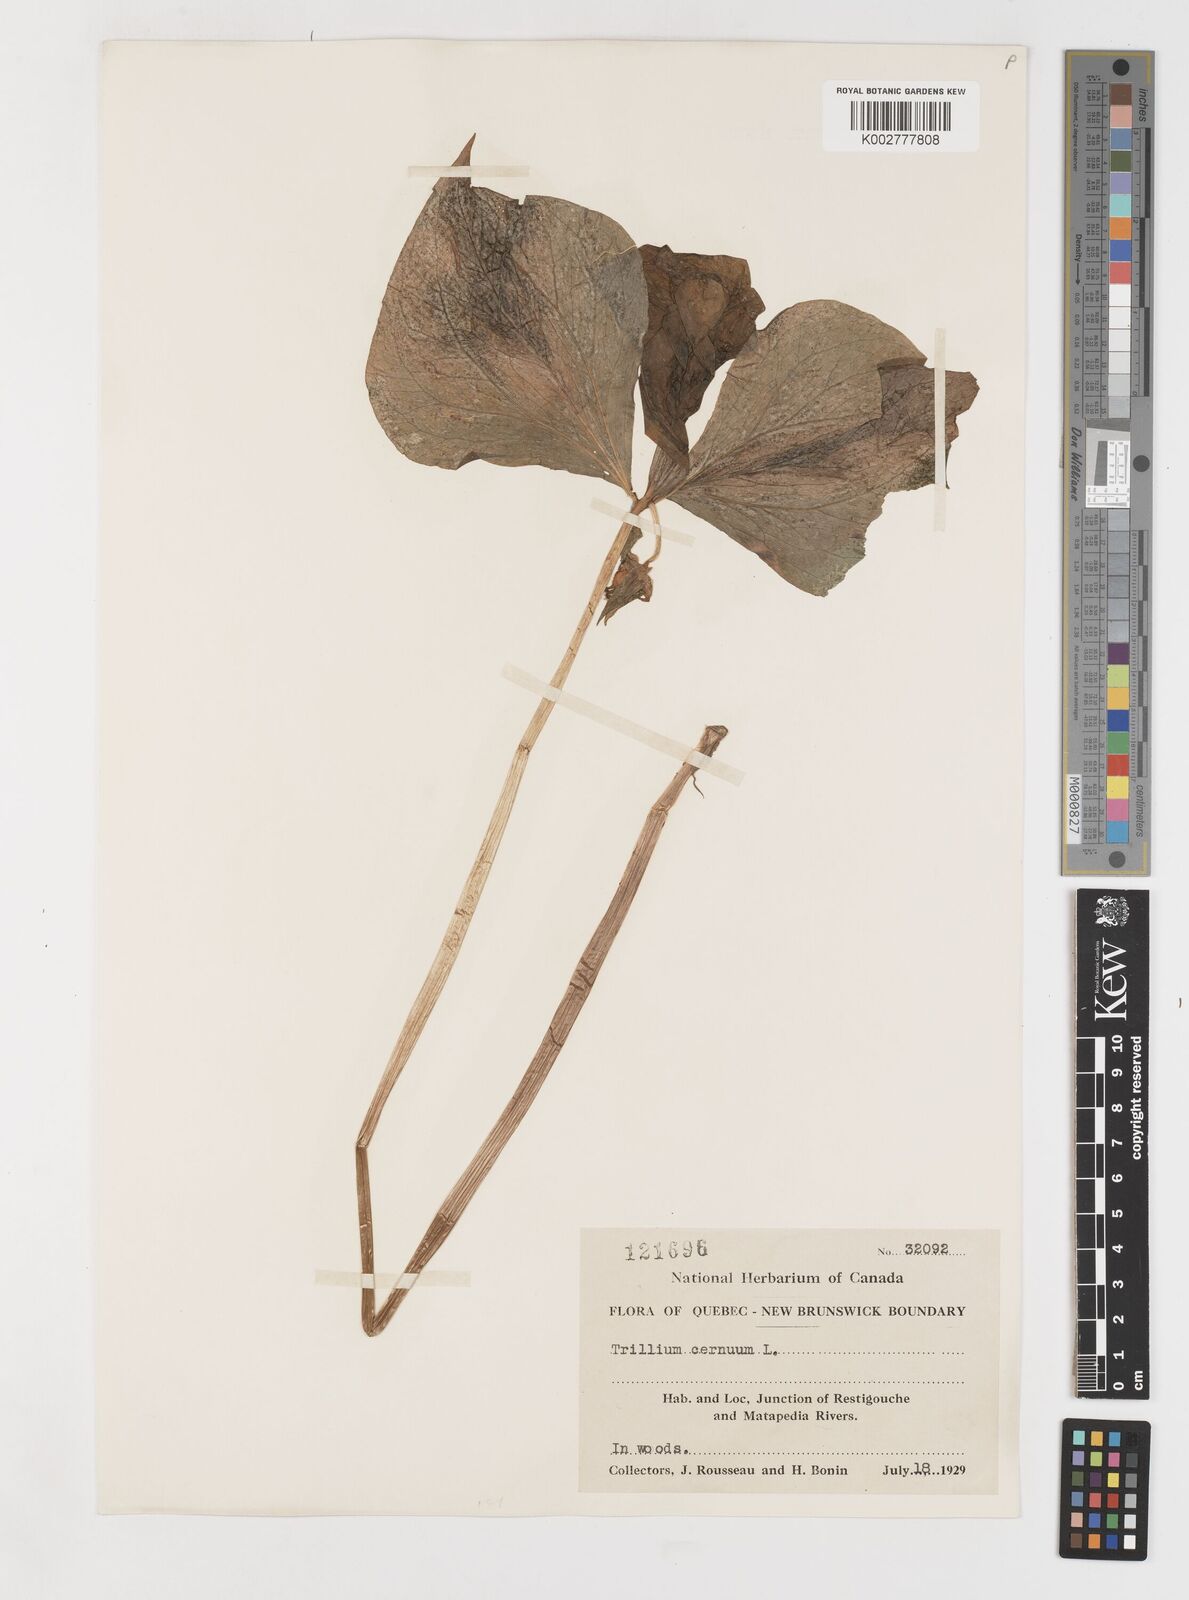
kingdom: Plantae
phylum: Tracheophyta
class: Liliopsida
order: Liliales
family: Melanthiaceae
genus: Trillium
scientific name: Trillium cernuum
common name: Nodding trillium
